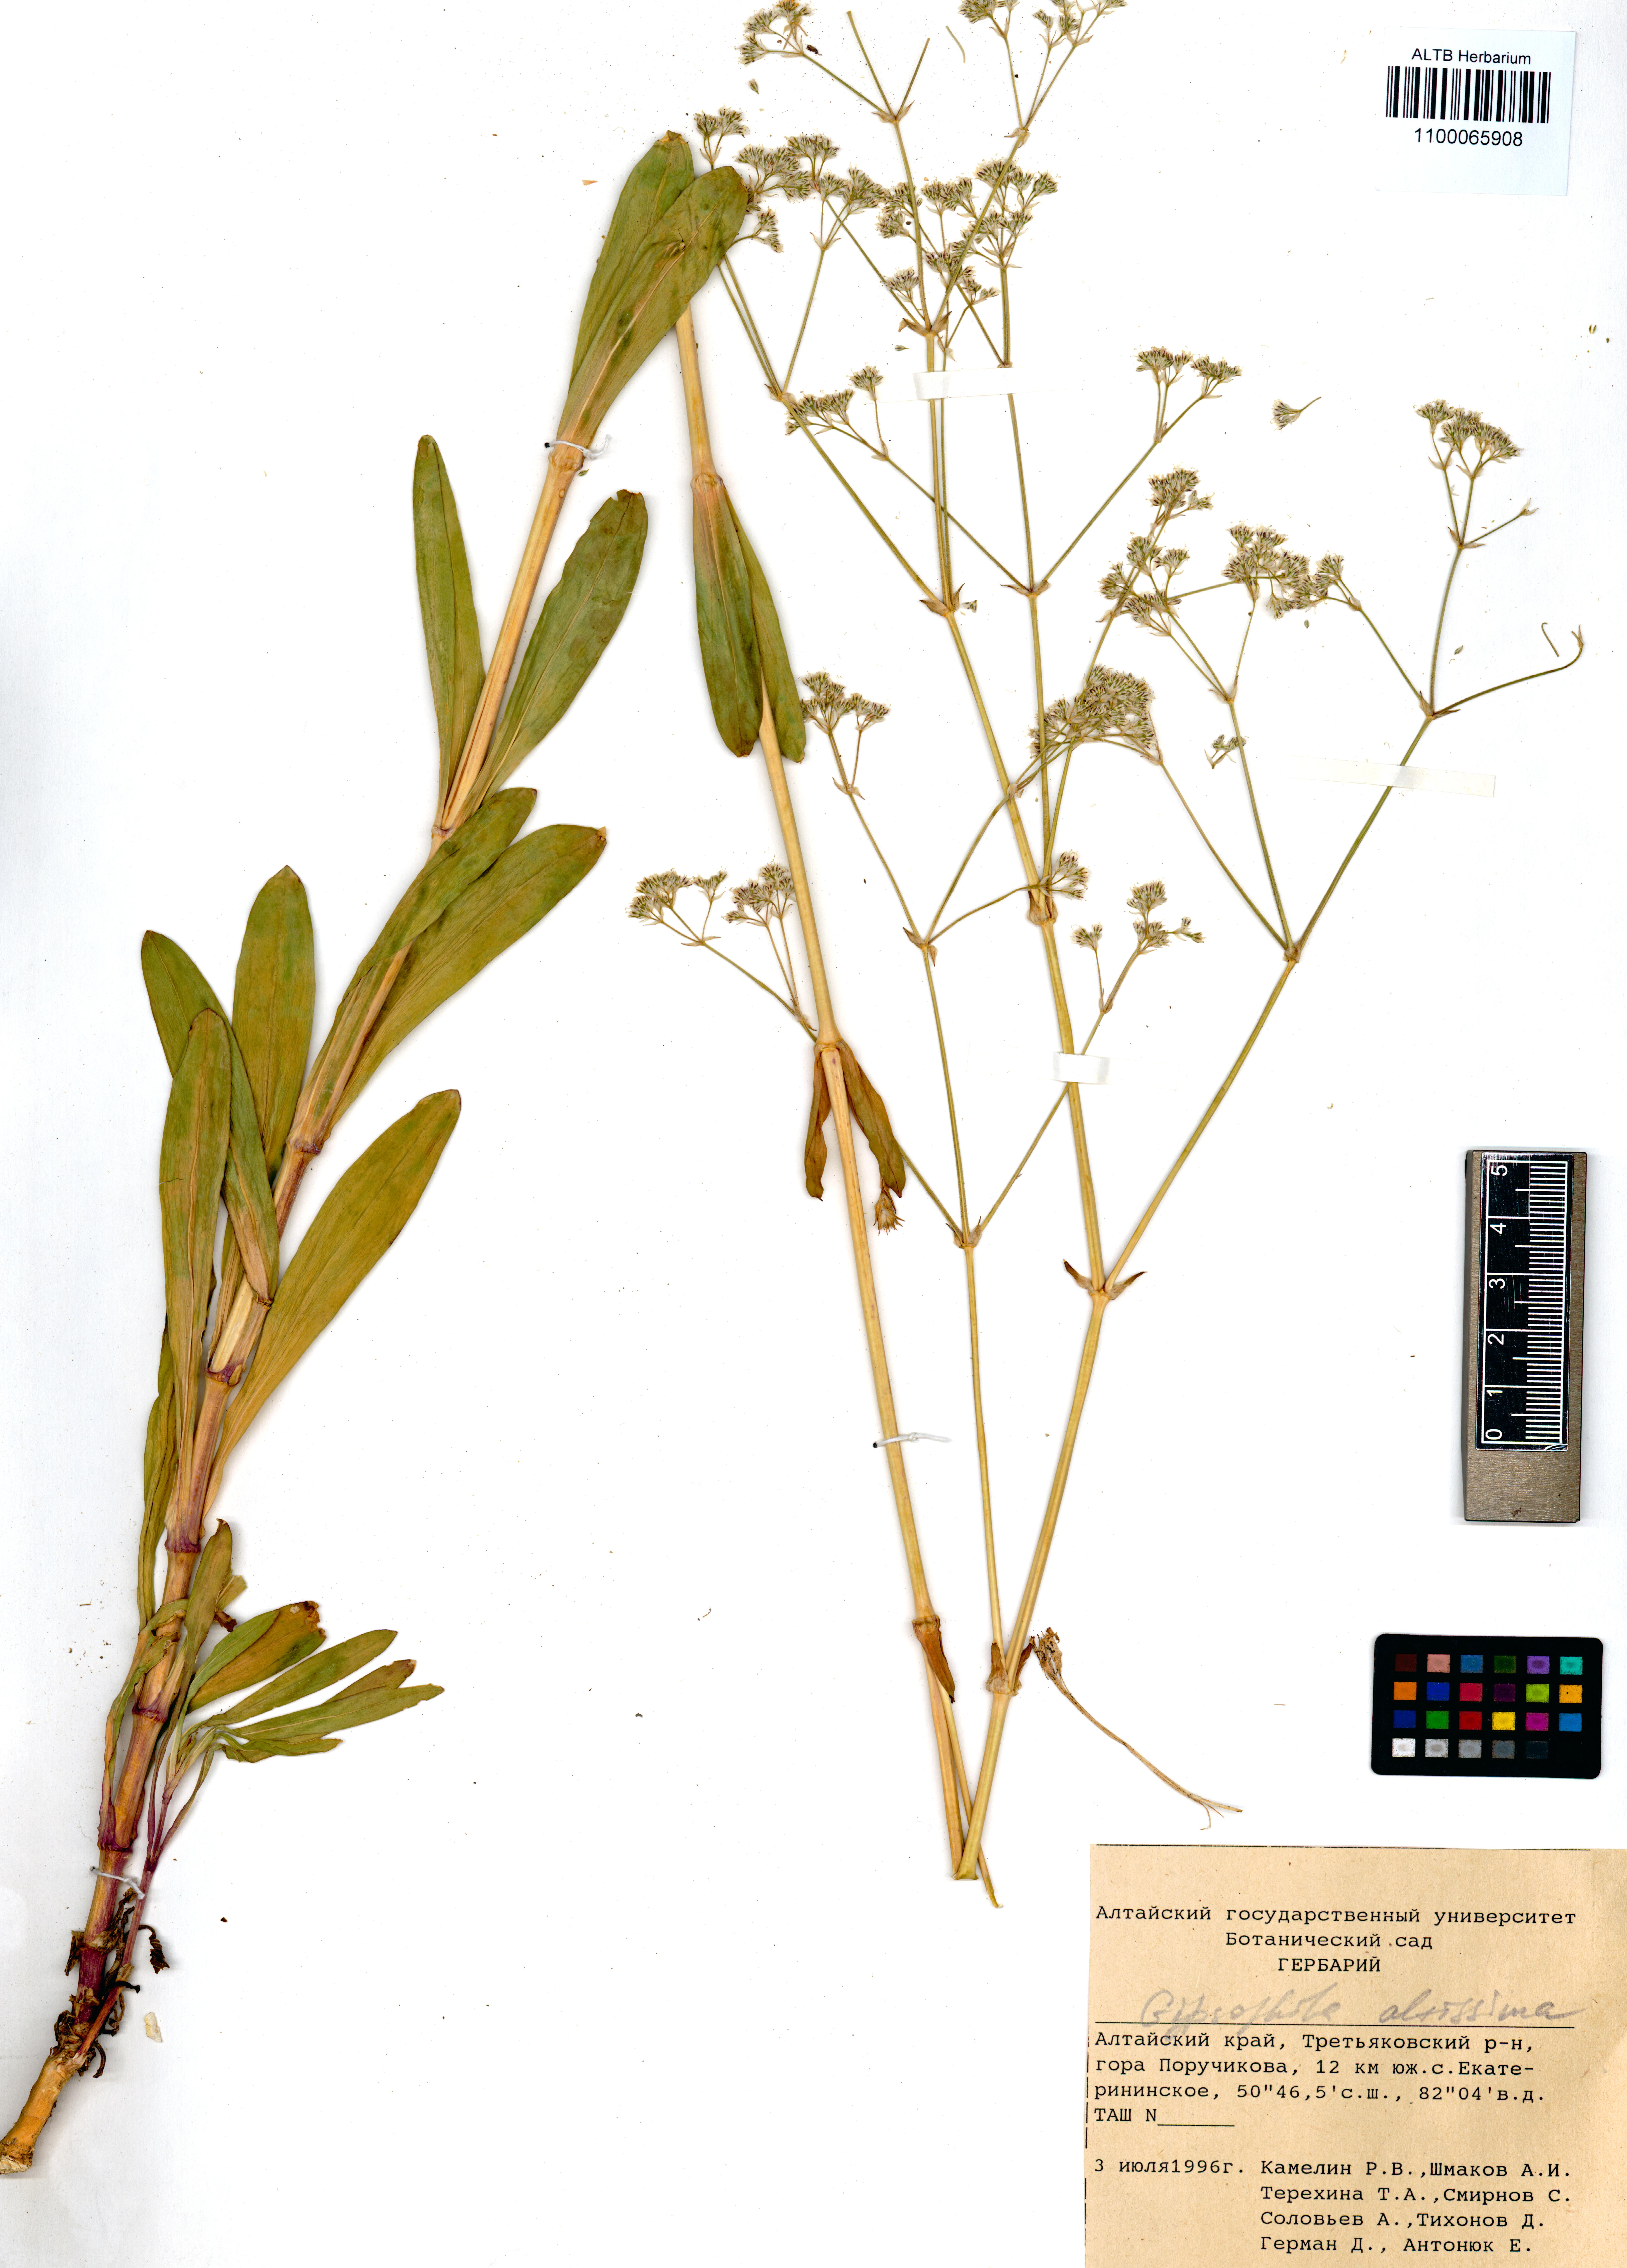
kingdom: Plantae
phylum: Tracheophyta
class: Magnoliopsida
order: Caryophyllales
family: Caryophyllaceae
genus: Gypsophila
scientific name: Gypsophila altissima
